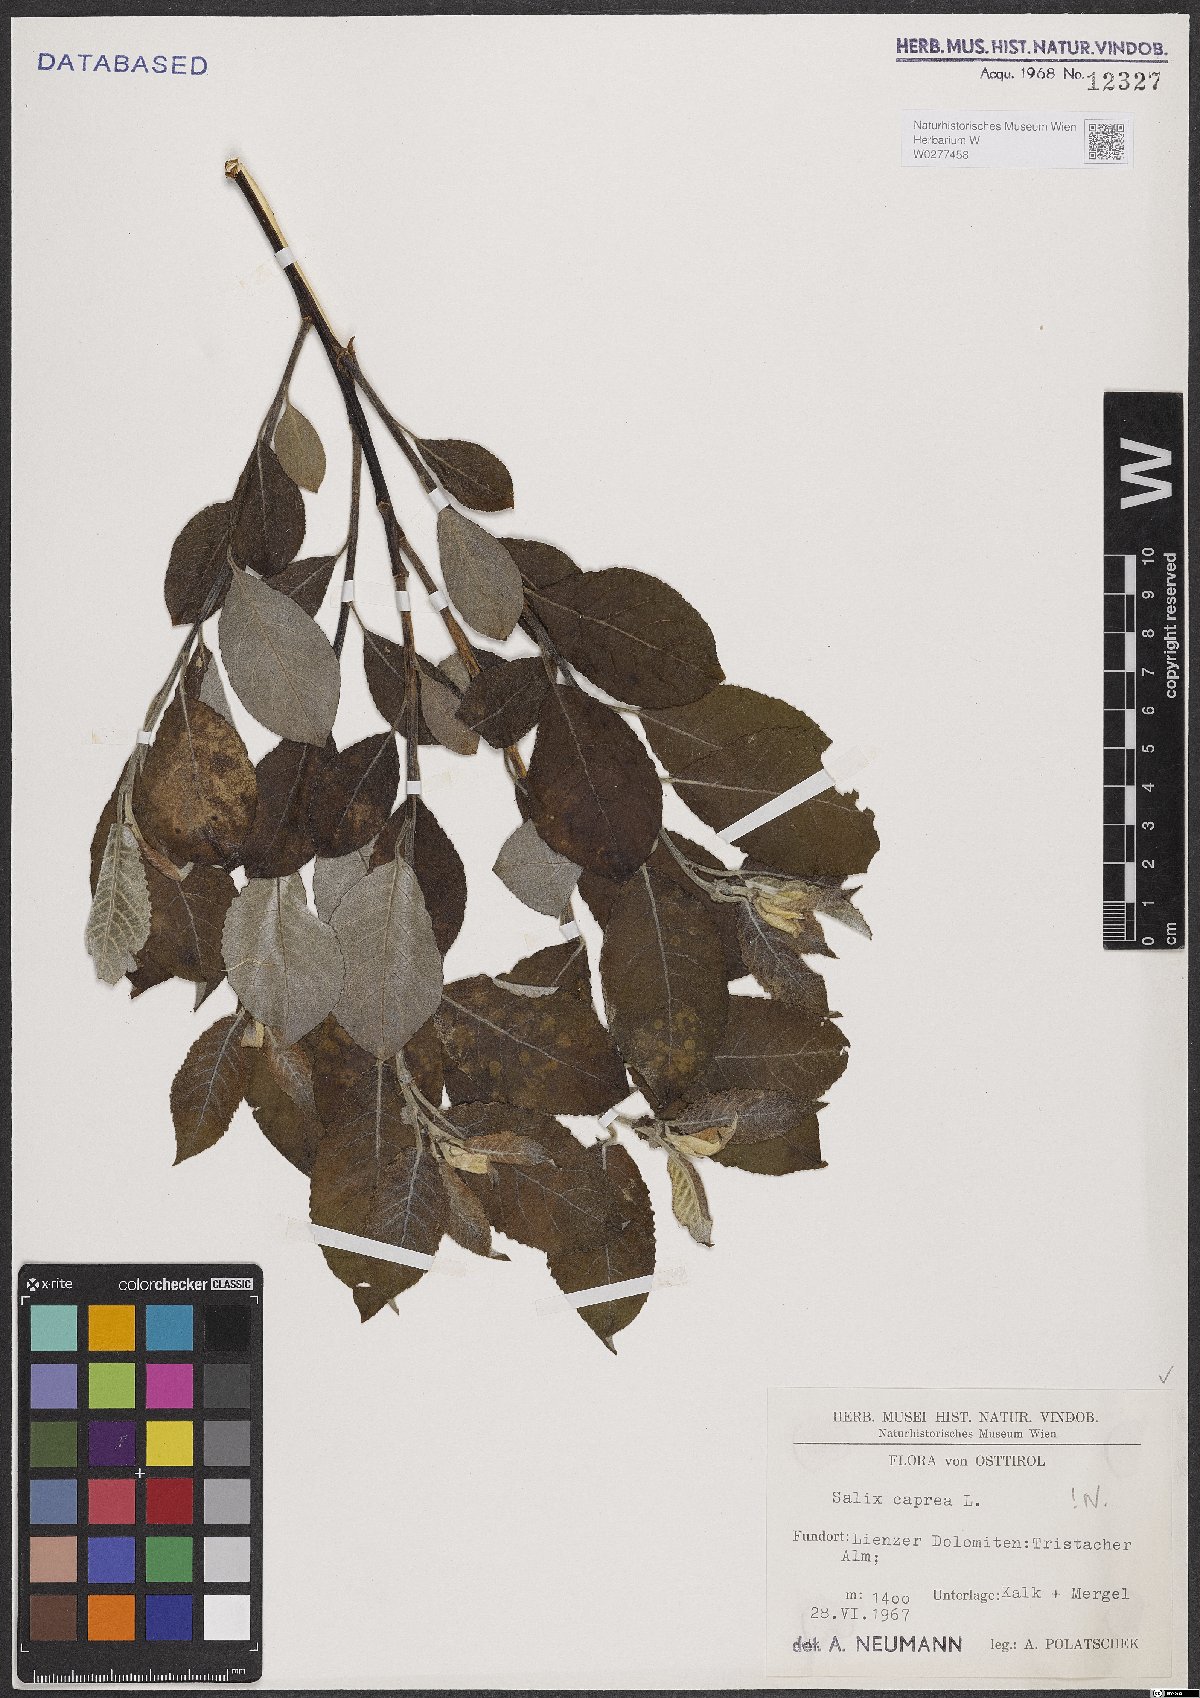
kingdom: Plantae
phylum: Tracheophyta
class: Magnoliopsida
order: Malpighiales
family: Salicaceae
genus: Salix
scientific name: Salix caprea
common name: Goat willow
